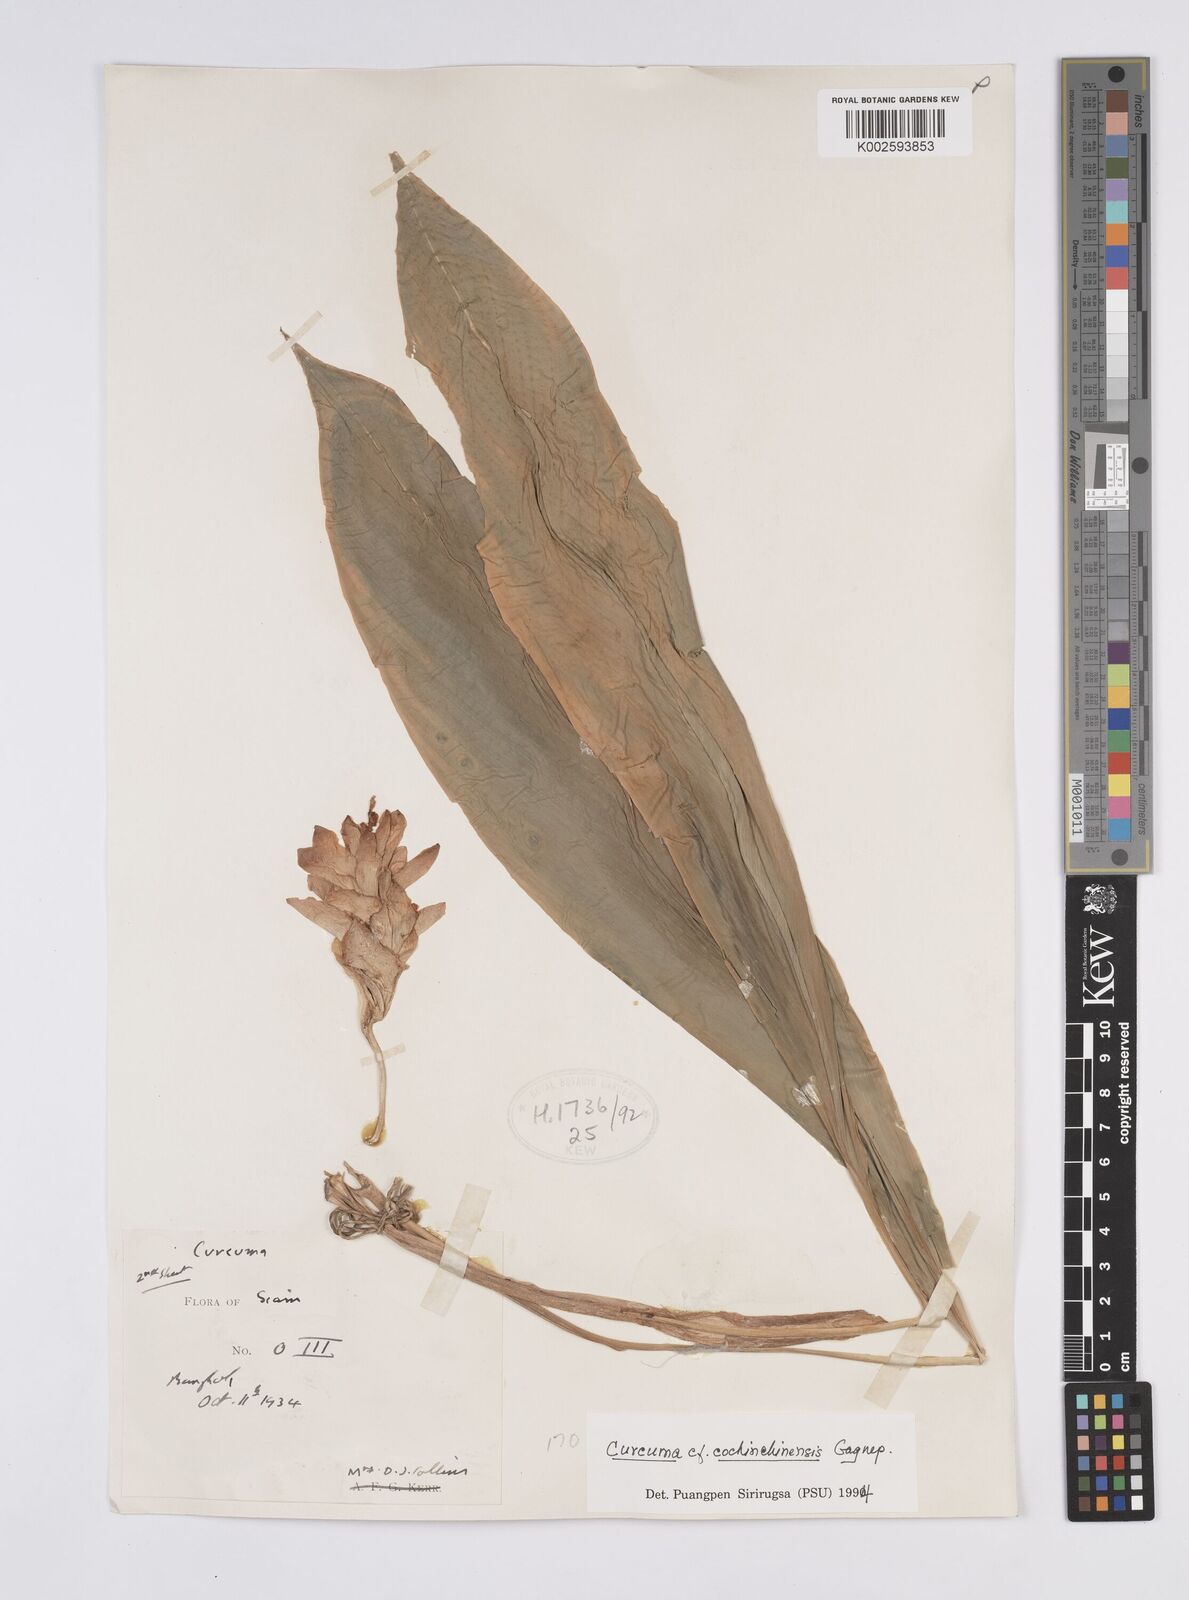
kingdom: Plantae
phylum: Tracheophyta
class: Liliopsida
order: Zingiberales
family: Zingiberaceae
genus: Curcuma
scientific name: Curcuma cochinchinensis
